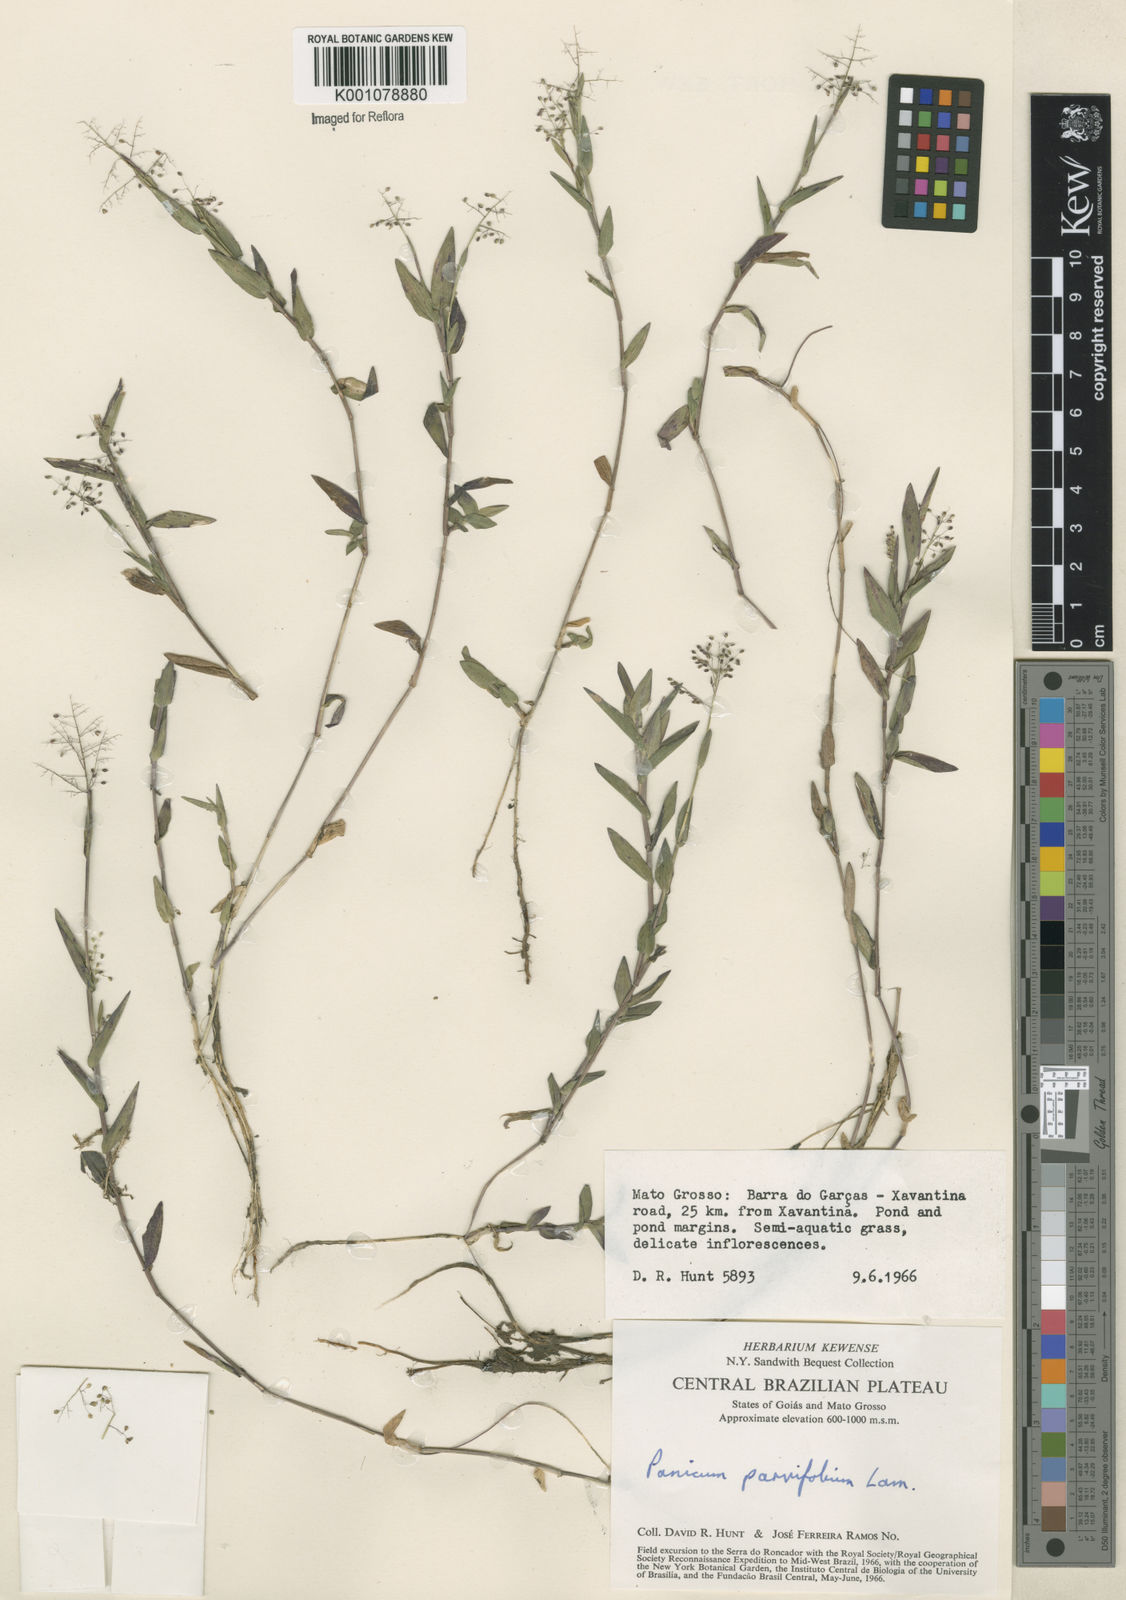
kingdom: Plantae
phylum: Tracheophyta
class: Liliopsida
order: Poales
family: Poaceae
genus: Trichanthecium
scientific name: Trichanthecium parvifolium
